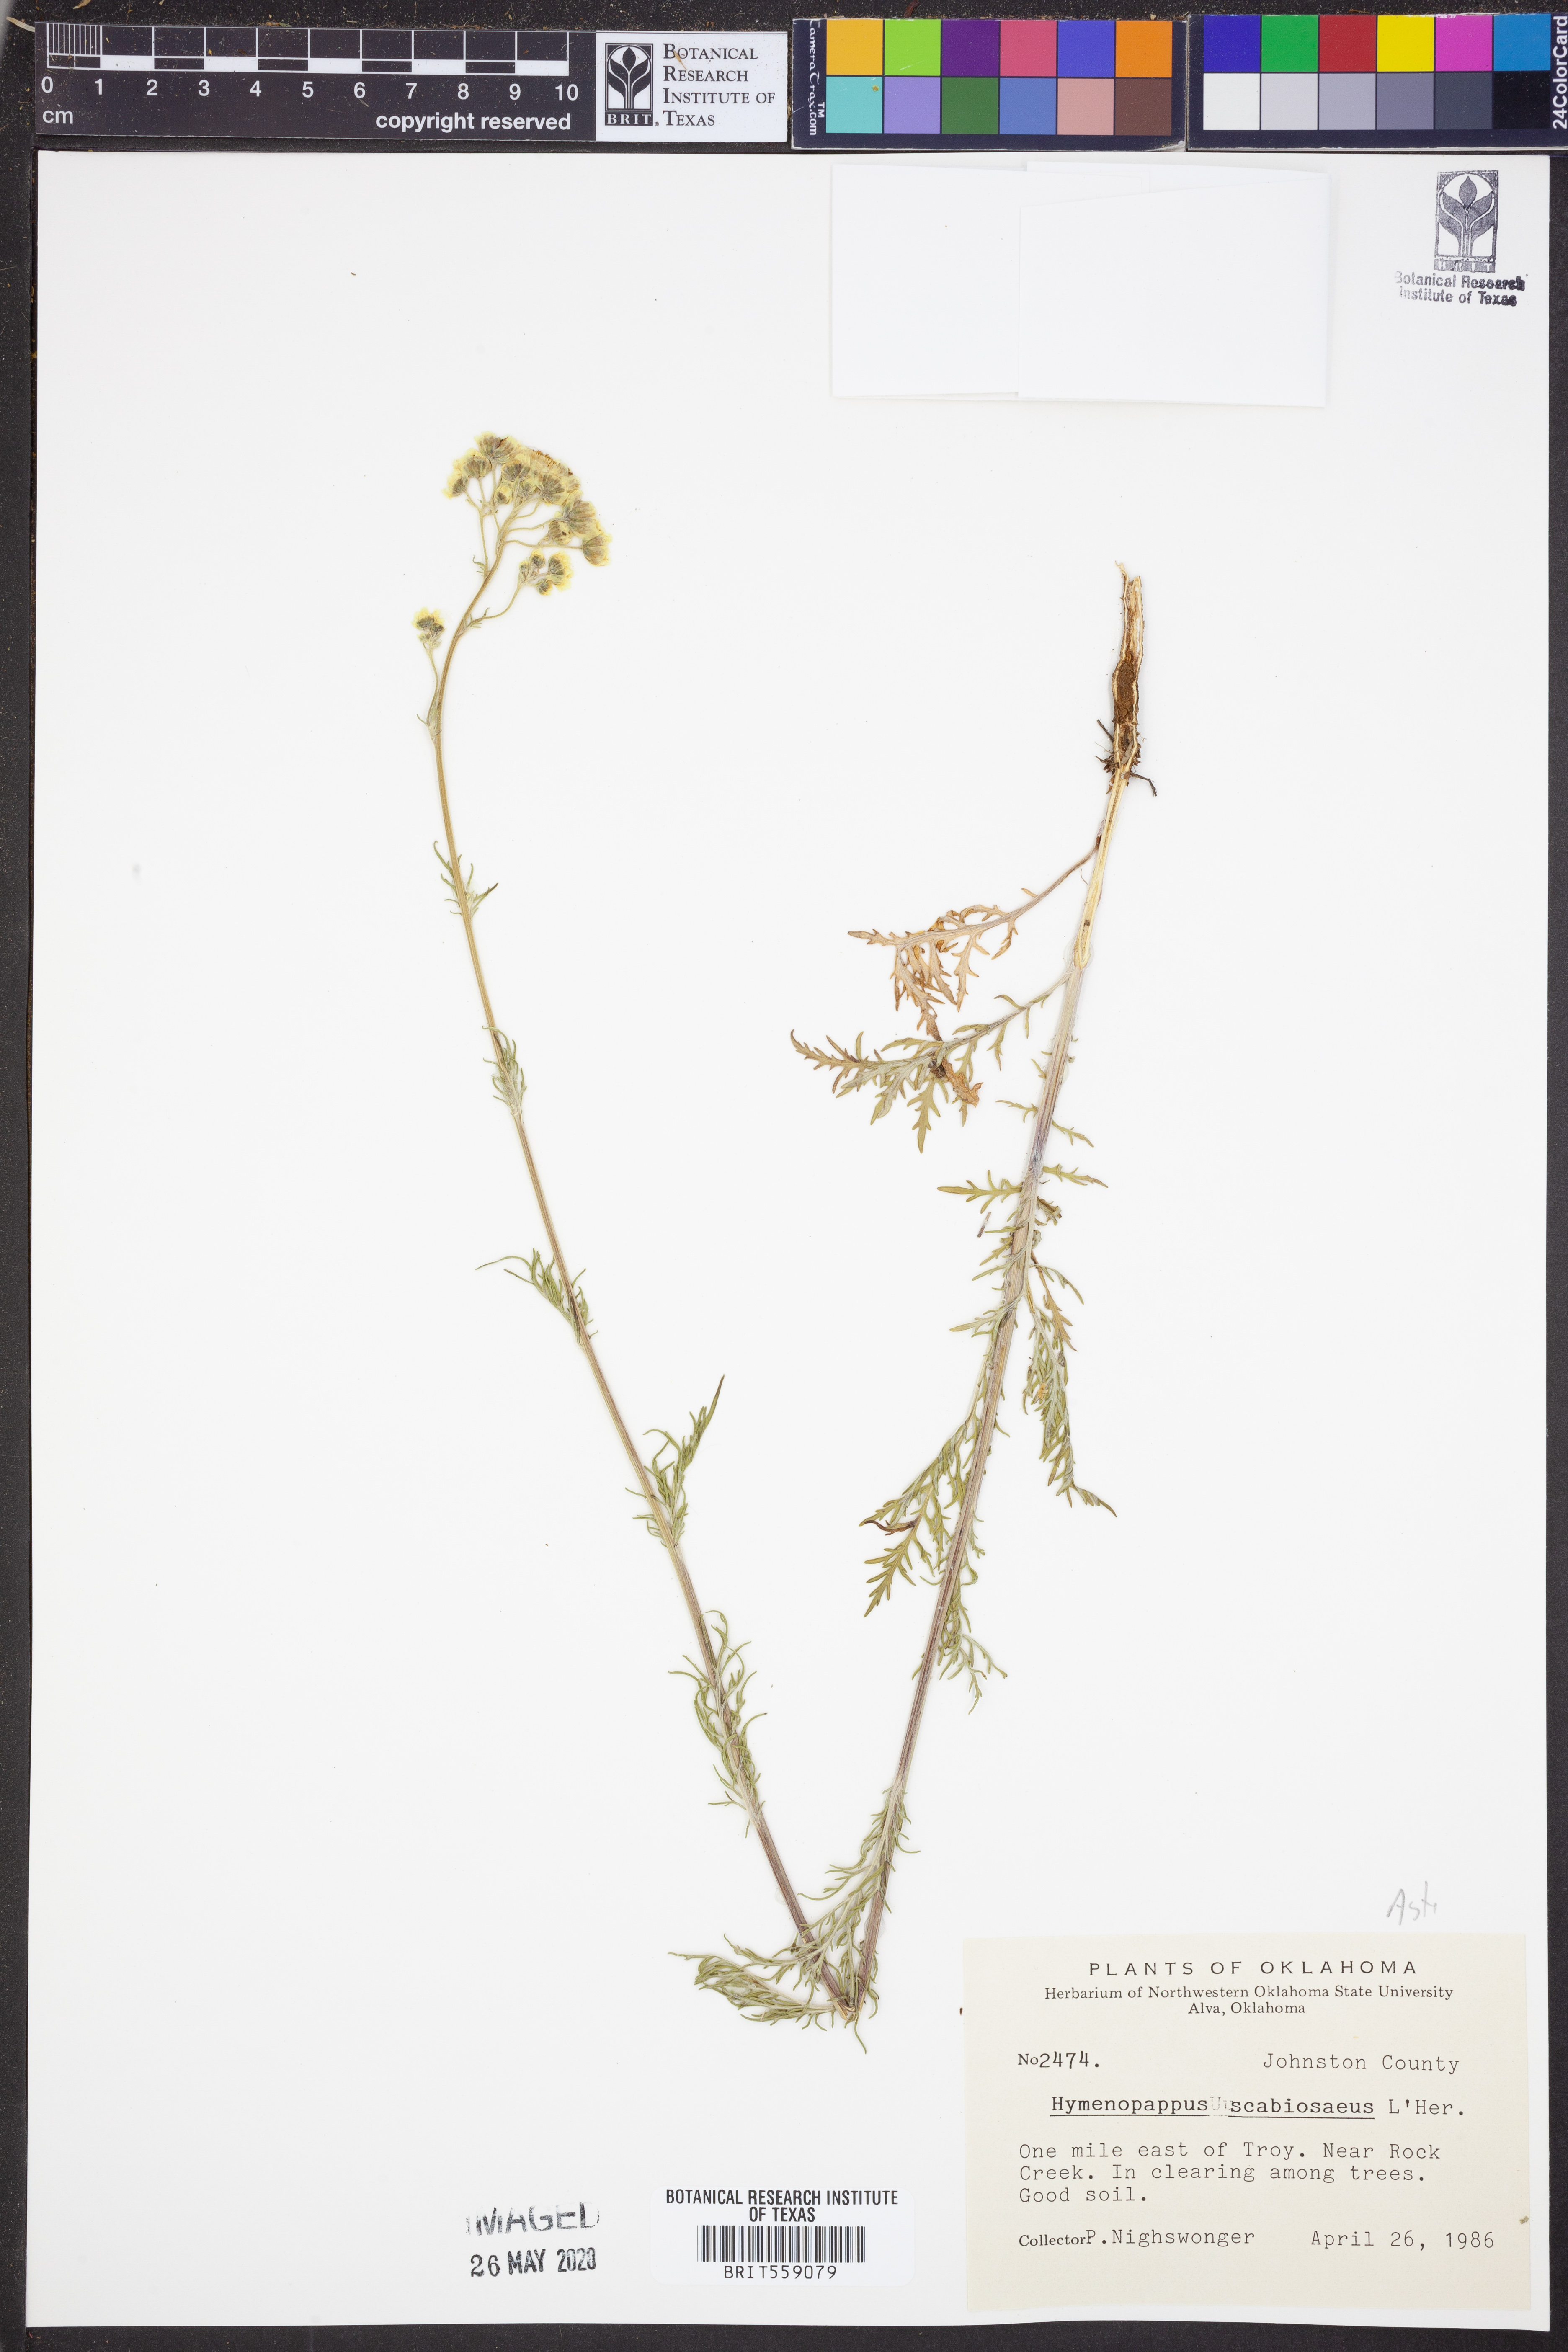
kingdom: Plantae
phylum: Tracheophyta
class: Magnoliopsida
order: Asterales
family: Asteraceae
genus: Hymenopappus
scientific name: Hymenopappus scabiosaeus
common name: Carolina woollywhite
